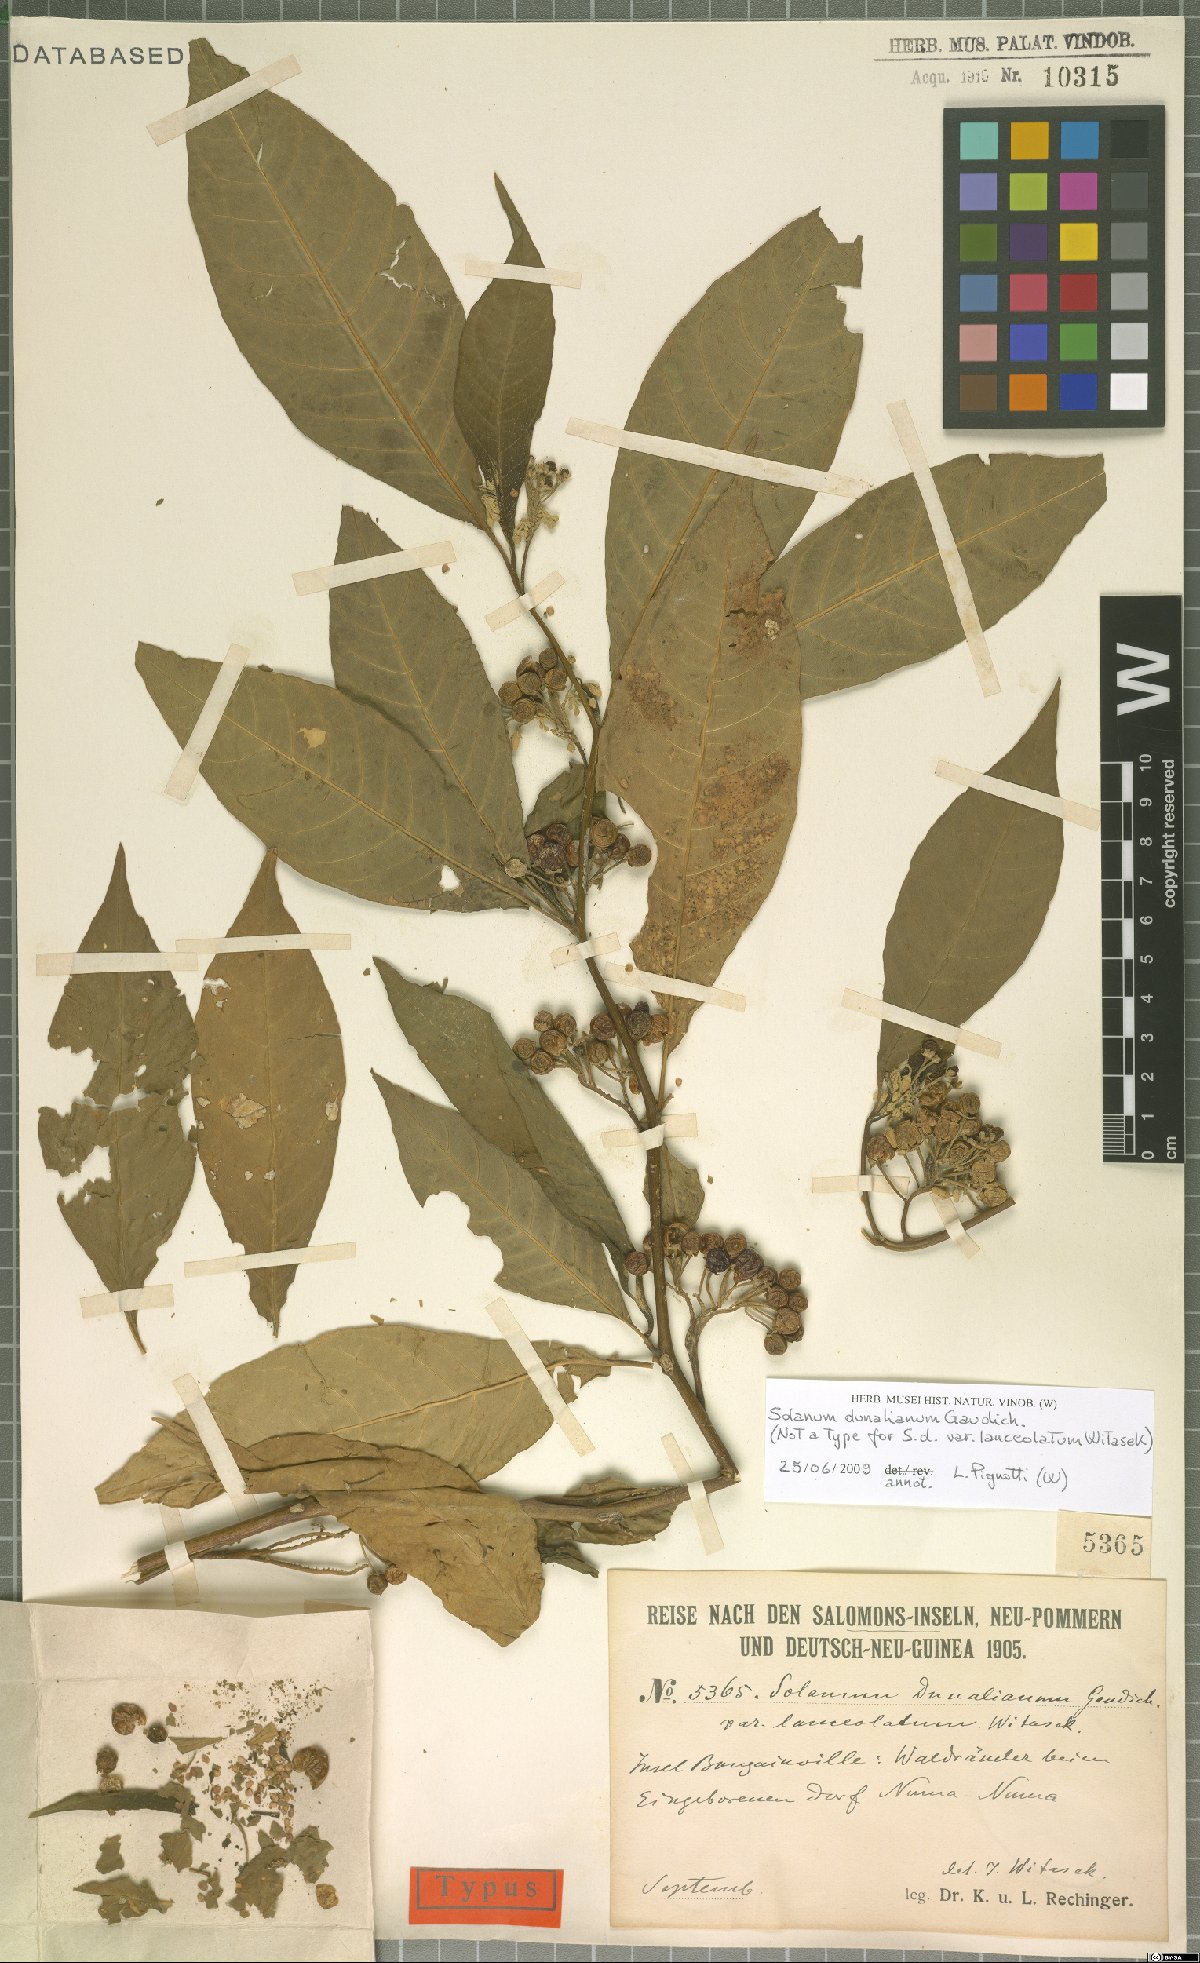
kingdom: Plantae
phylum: Tracheophyta
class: Magnoliopsida
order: Solanales
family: Solanaceae
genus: Solanum
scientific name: Solanum dunalianum
